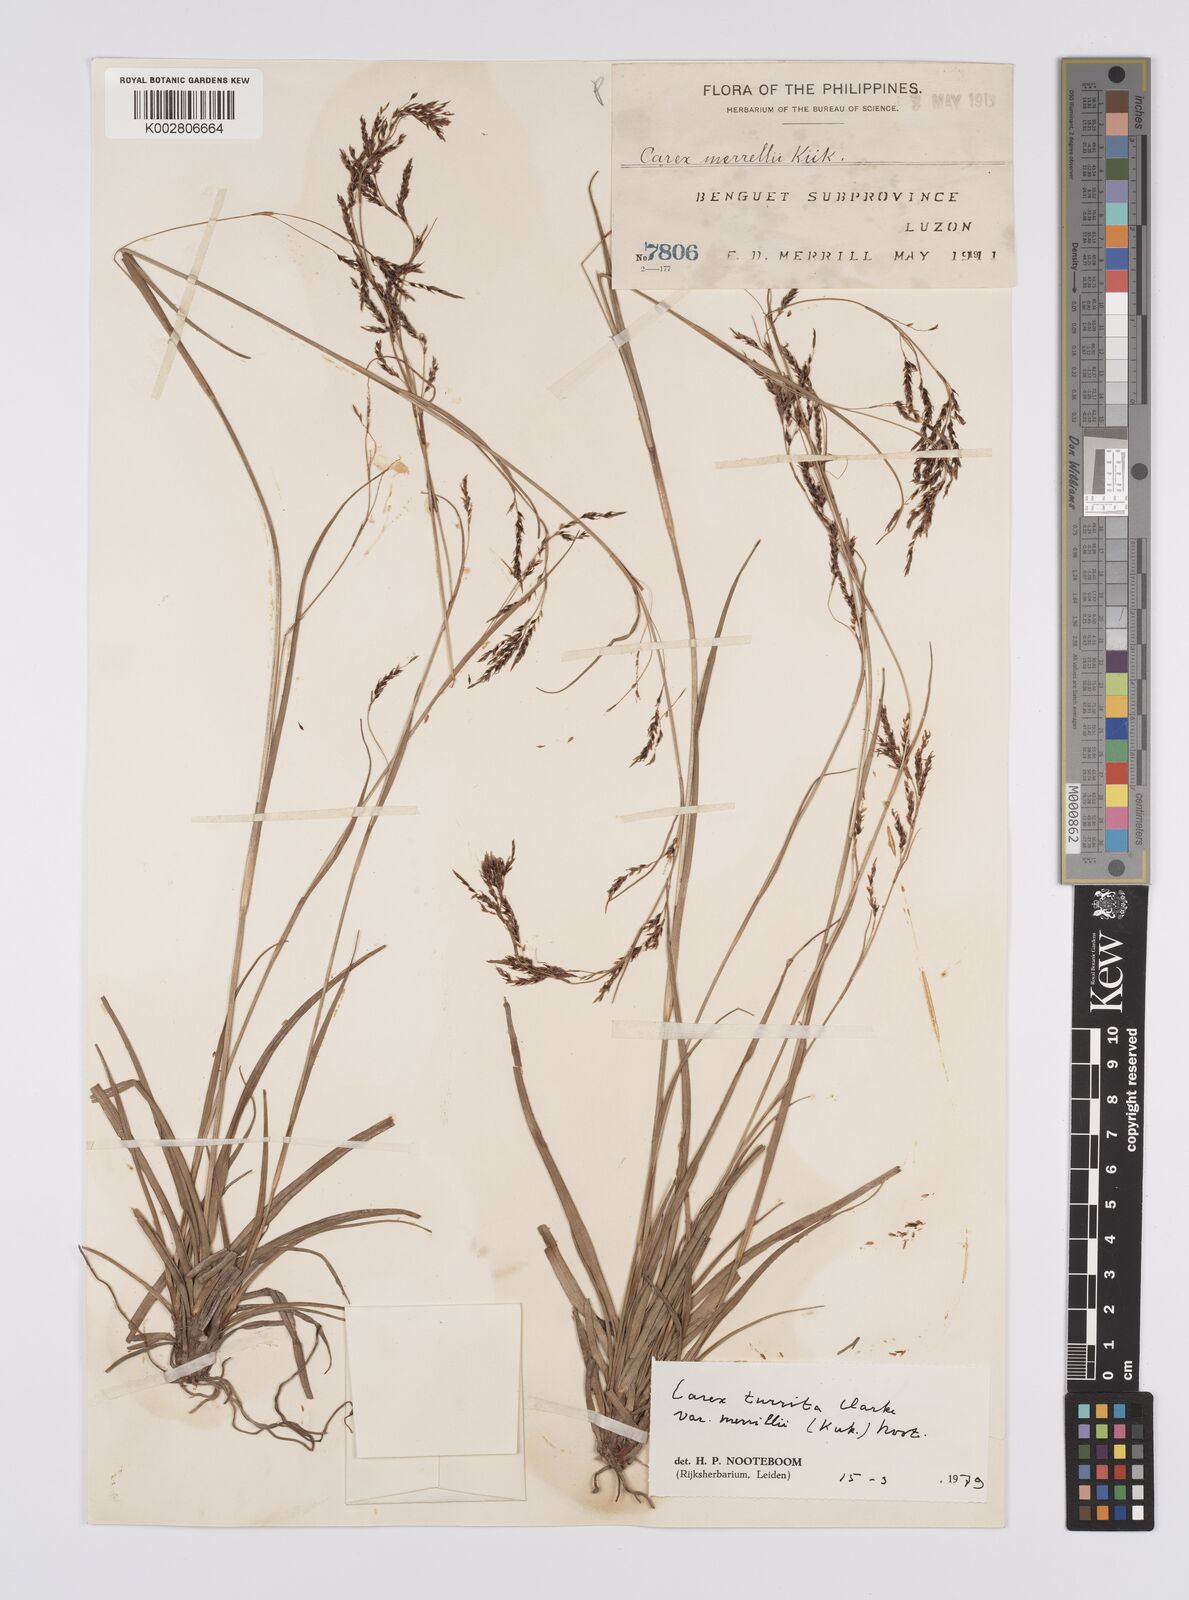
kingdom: Plantae
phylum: Tracheophyta
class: Liliopsida
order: Poales
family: Cyperaceae
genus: Carex
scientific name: Carex turrita
